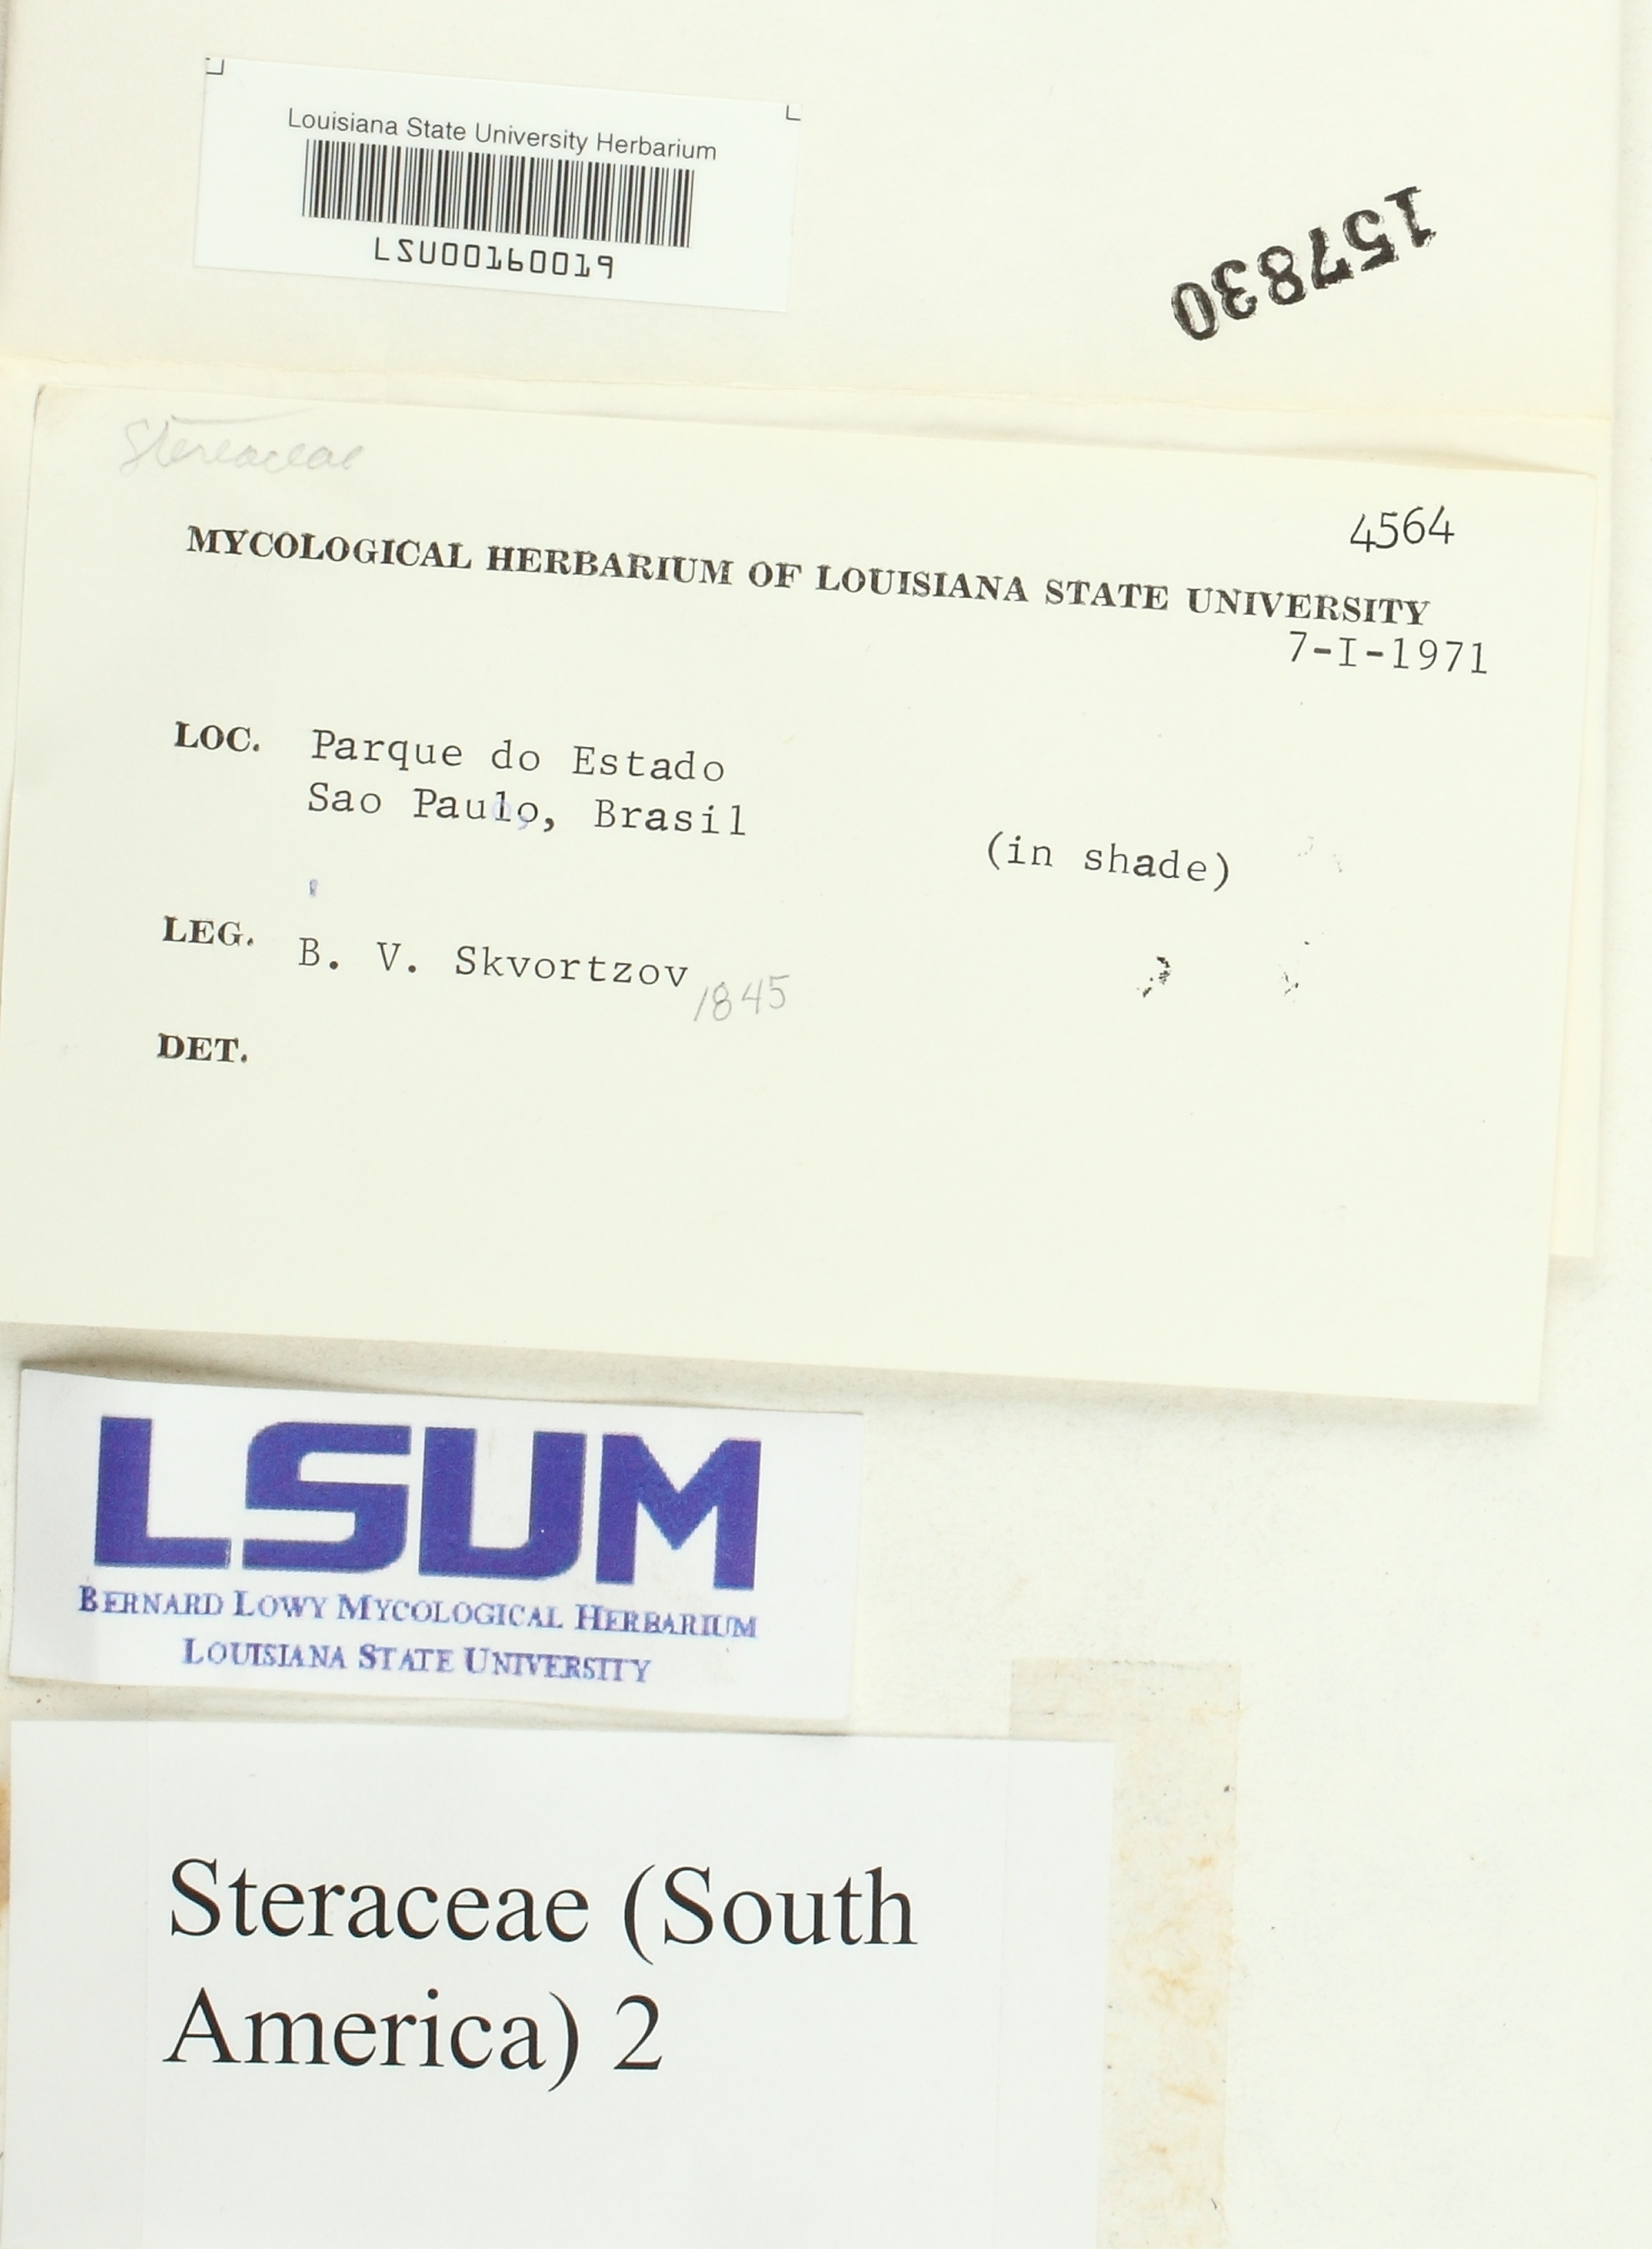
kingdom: Fungi
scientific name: Fungi
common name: Fungi
